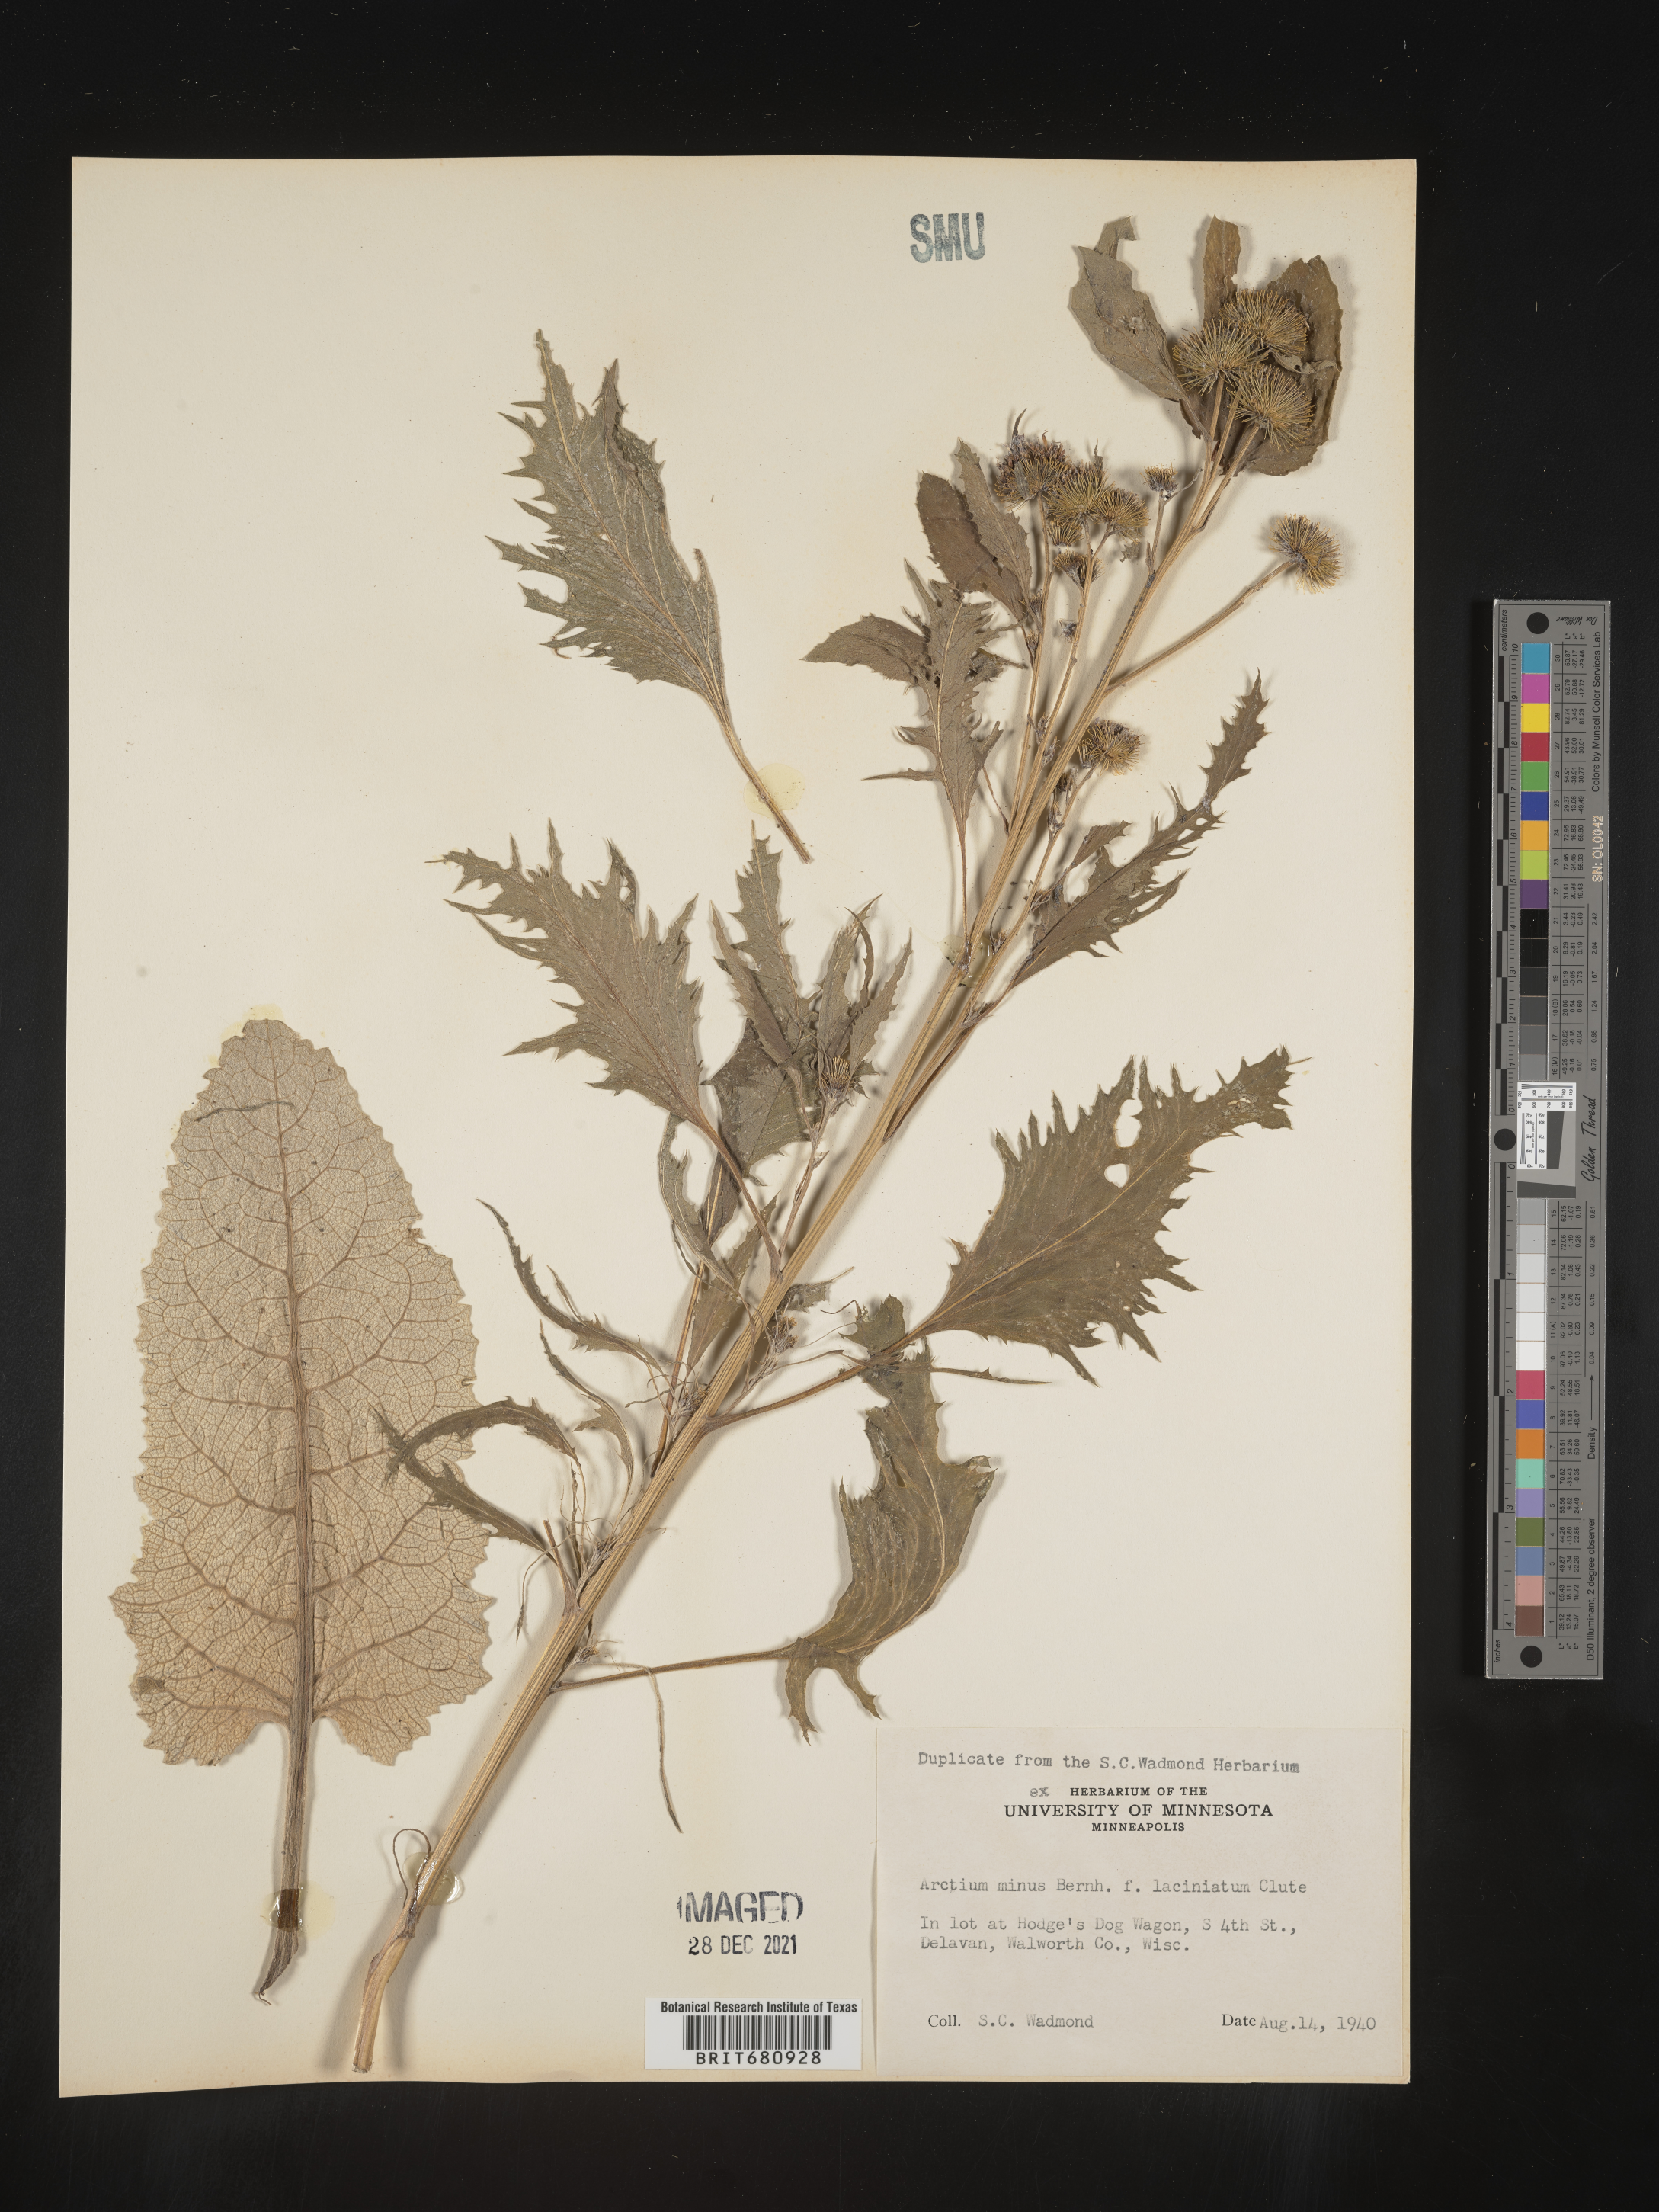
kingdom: Plantae
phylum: Tracheophyta
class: Magnoliopsida
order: Asterales
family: Asteraceae
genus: Arctium
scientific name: Arctium minus
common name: Lesser burdock
